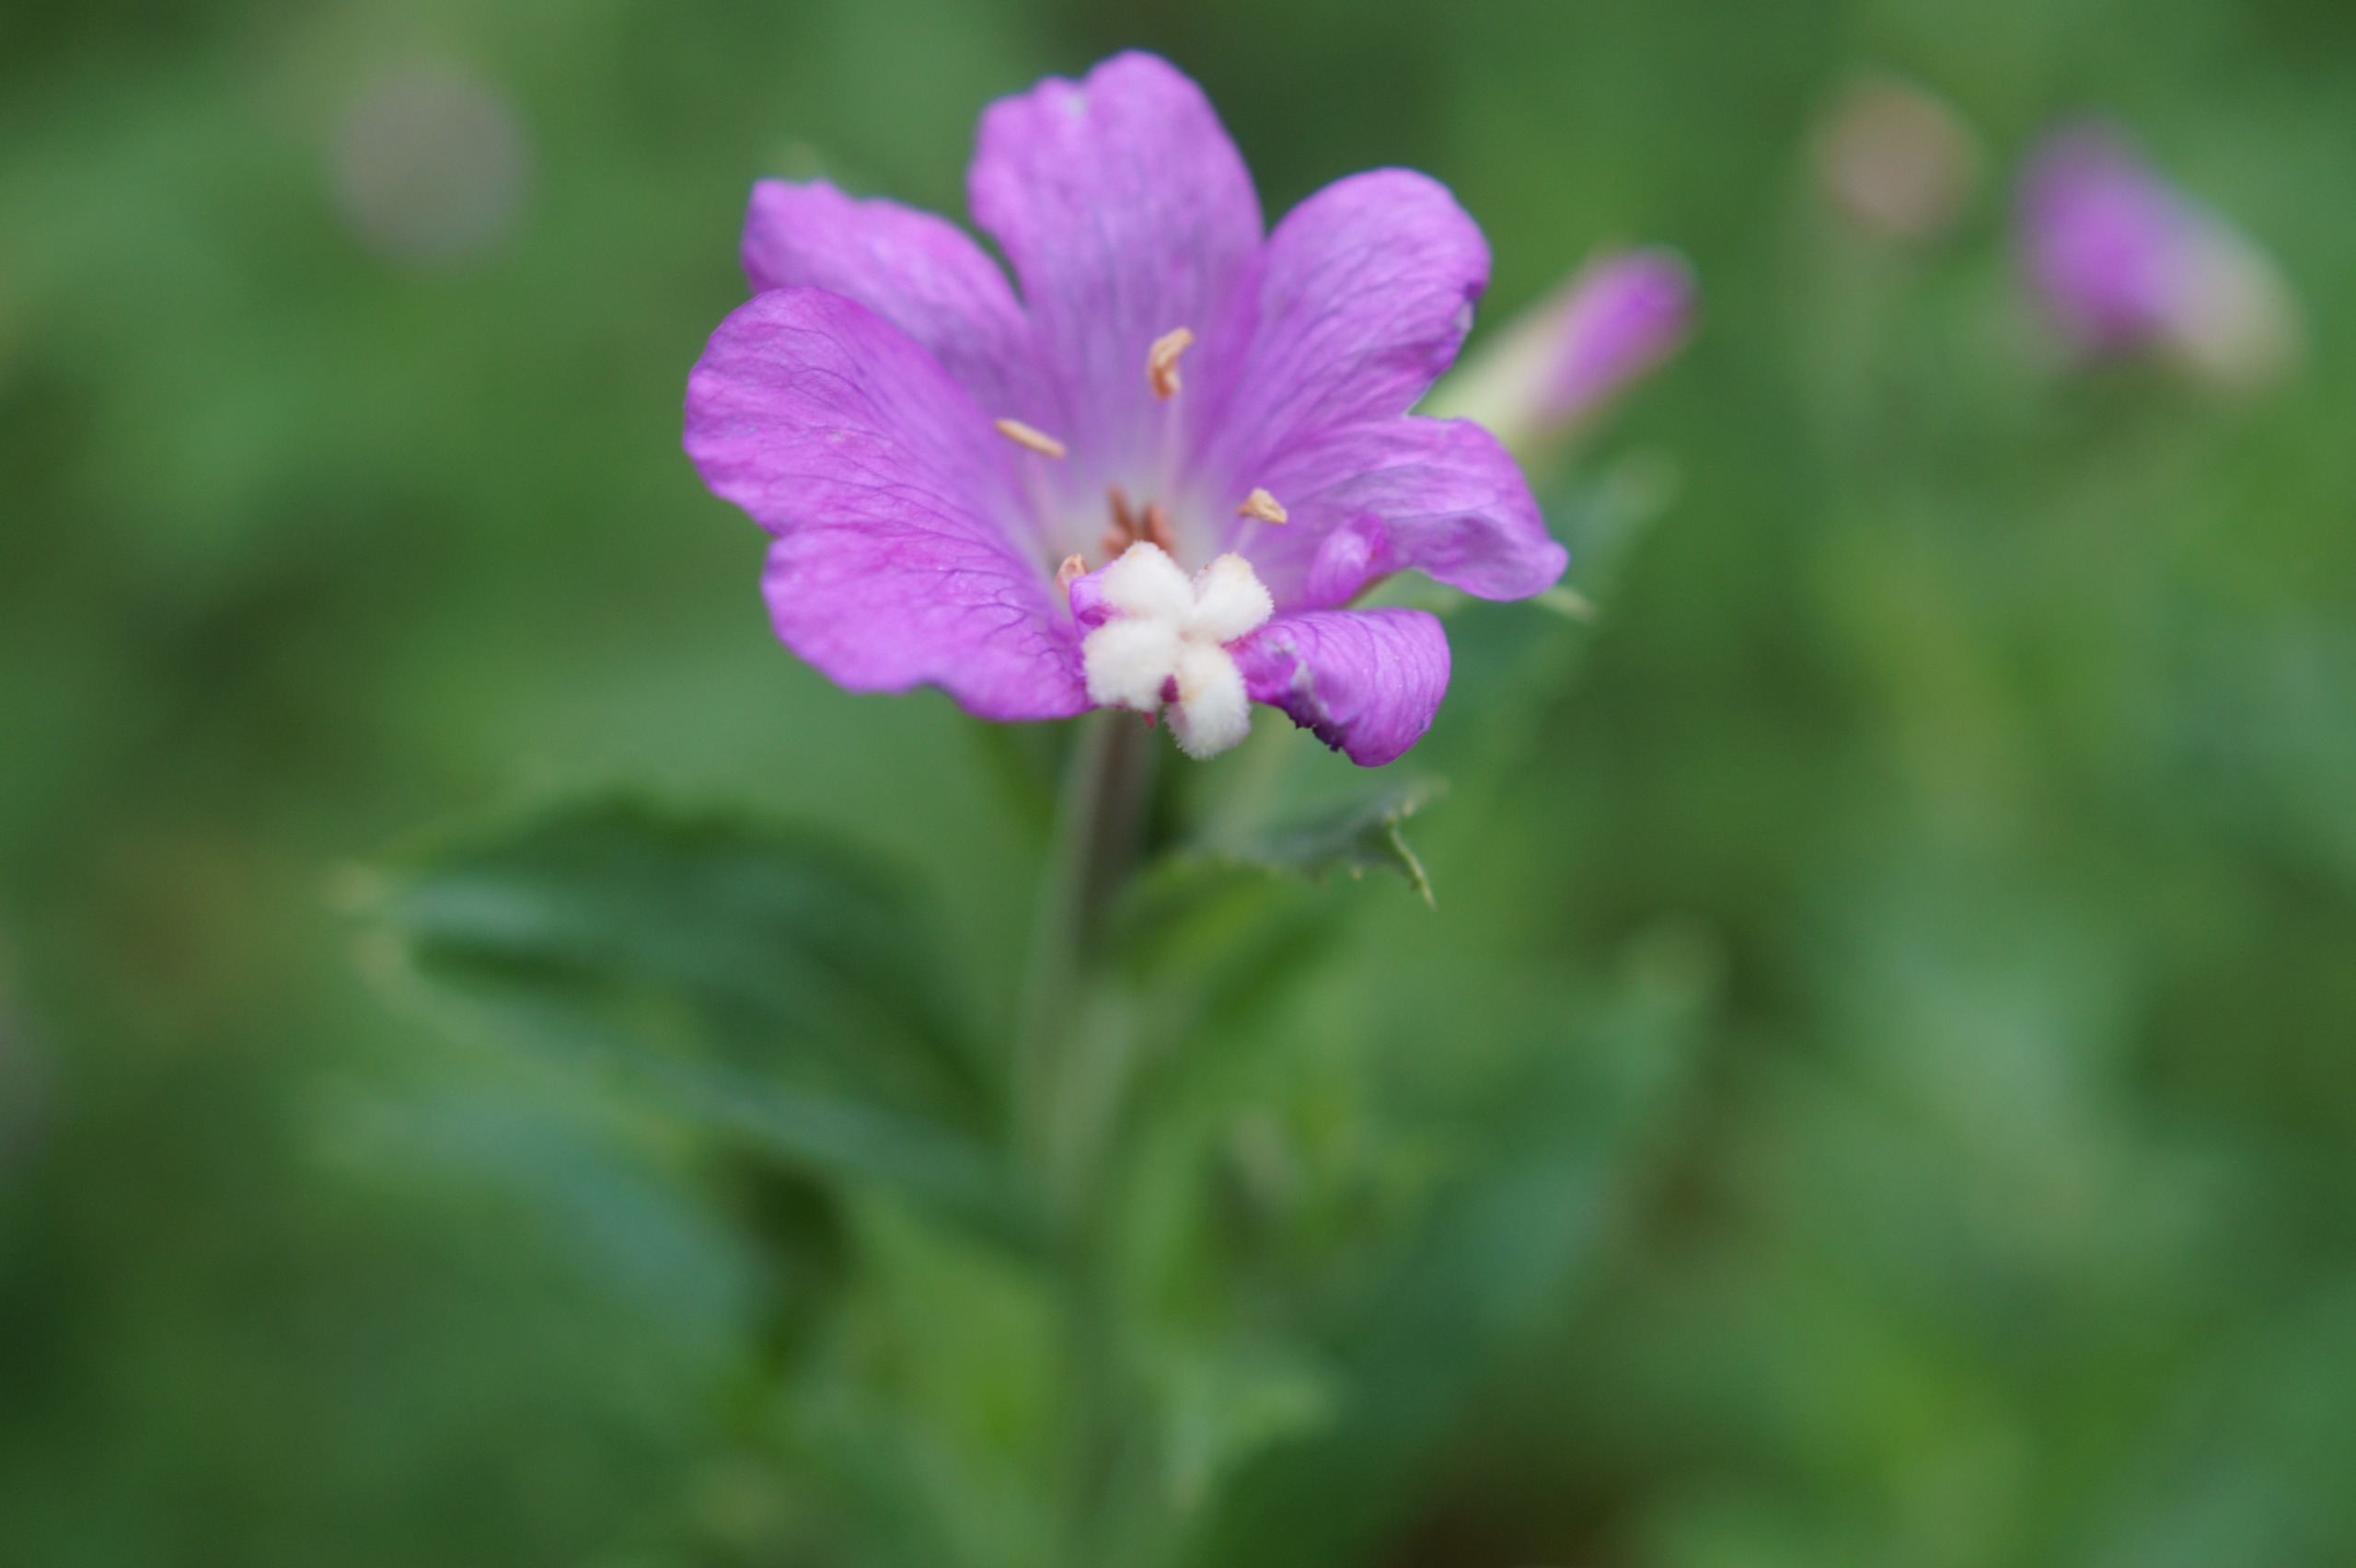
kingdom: Plantae
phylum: Tracheophyta
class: Magnoliopsida
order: Myrtales
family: Onagraceae
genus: Epilobium
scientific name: Epilobium hirsutum
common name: Lådden dueurt
